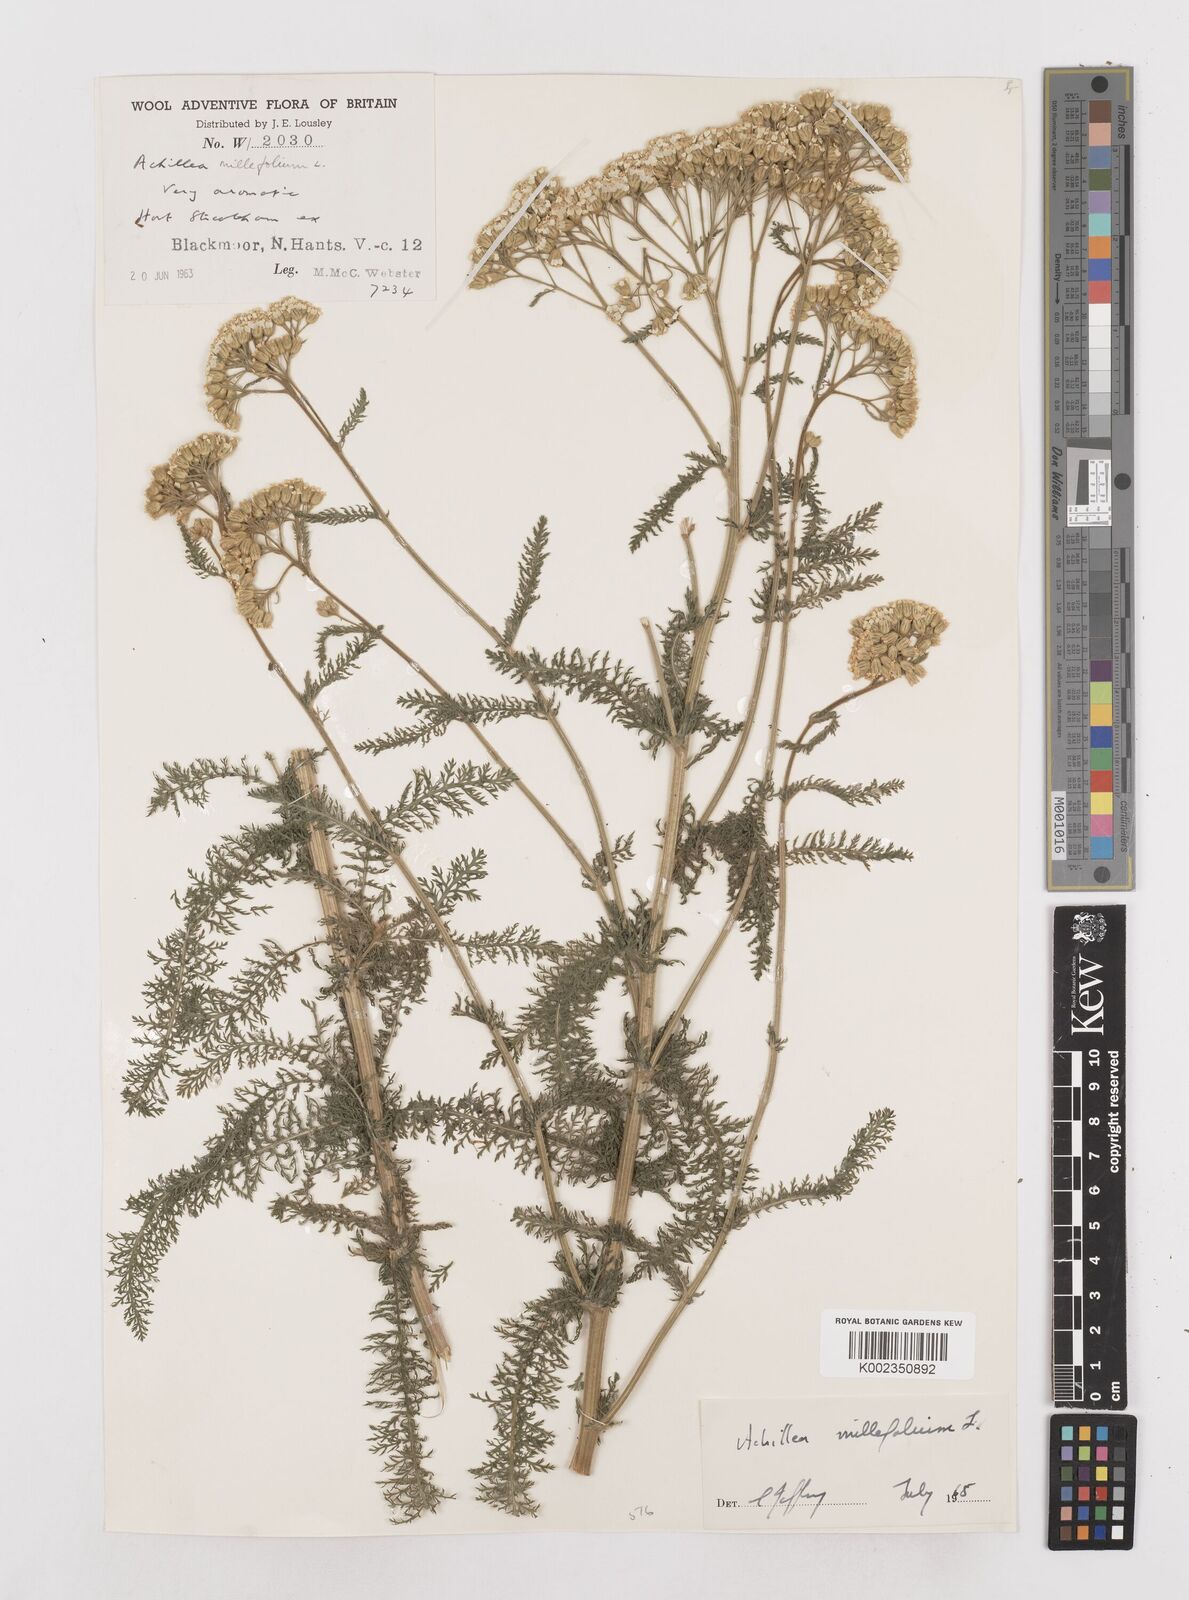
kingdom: Plantae
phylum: Tracheophyta
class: Magnoliopsida
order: Asterales
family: Asteraceae
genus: Achillea
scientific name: Achillea millefolium
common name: Yarrow
